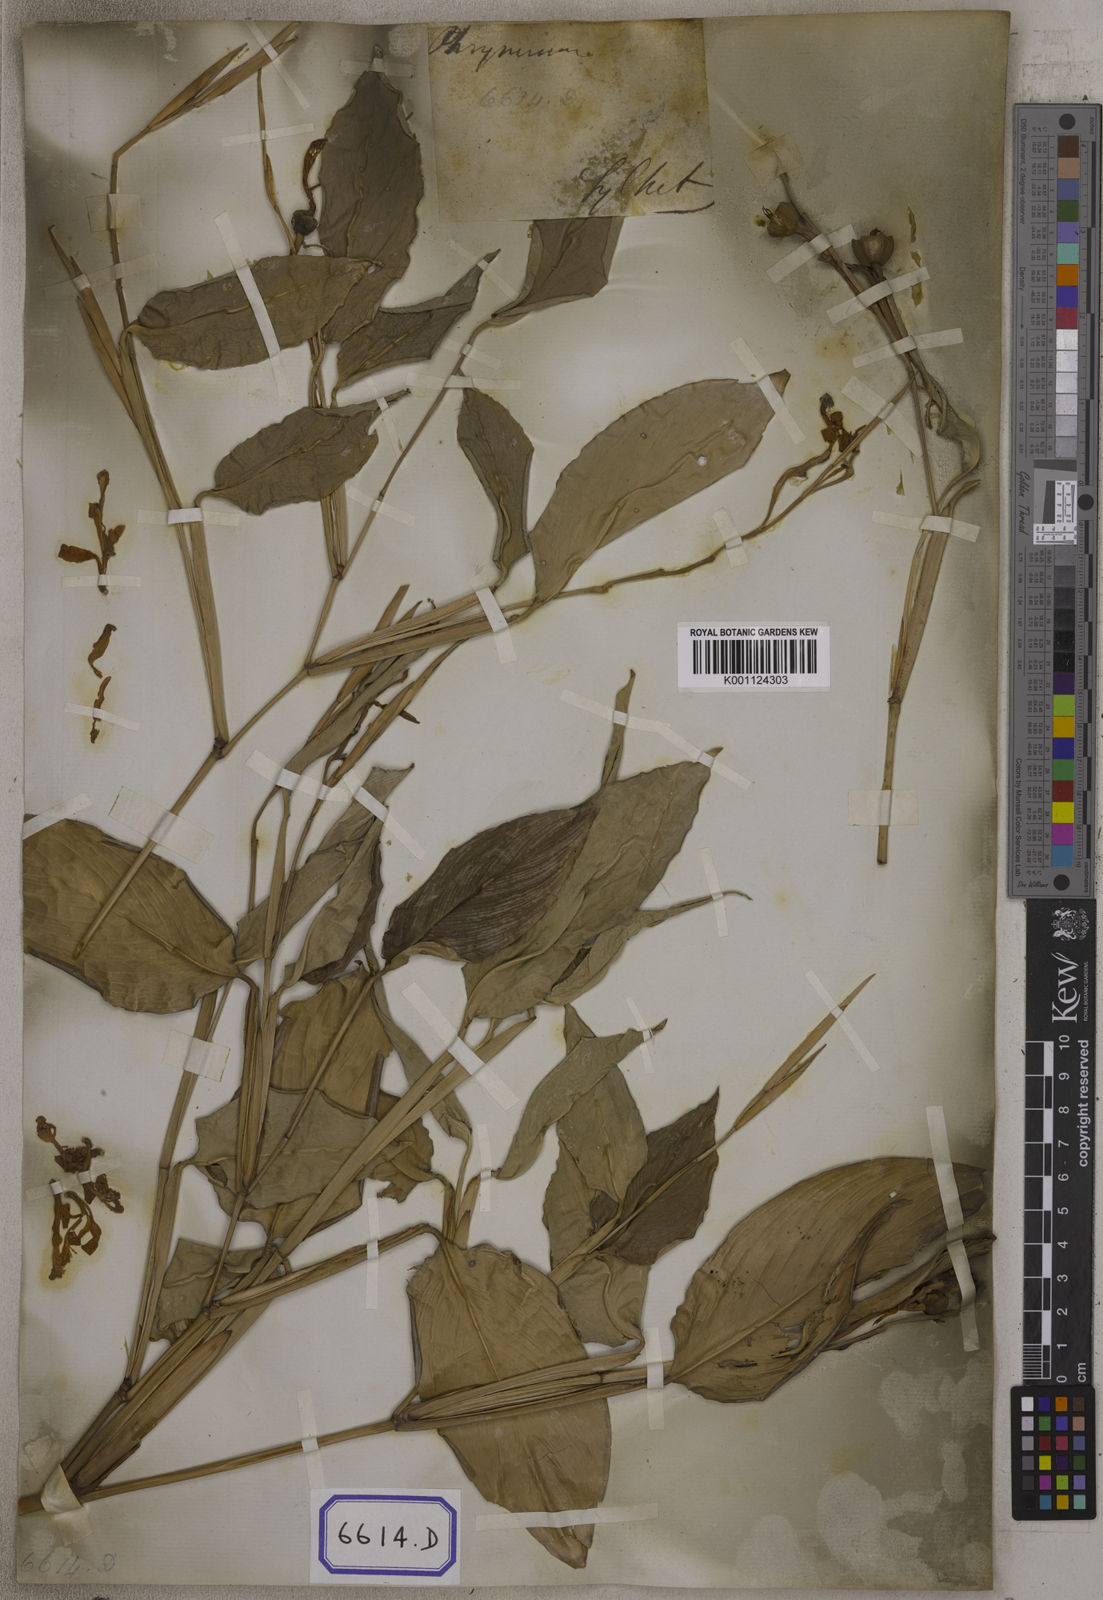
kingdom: Plantae
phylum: Tracheophyta
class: Liliopsida
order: Zingiberales
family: Marantaceae
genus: Maranta
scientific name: Maranta
